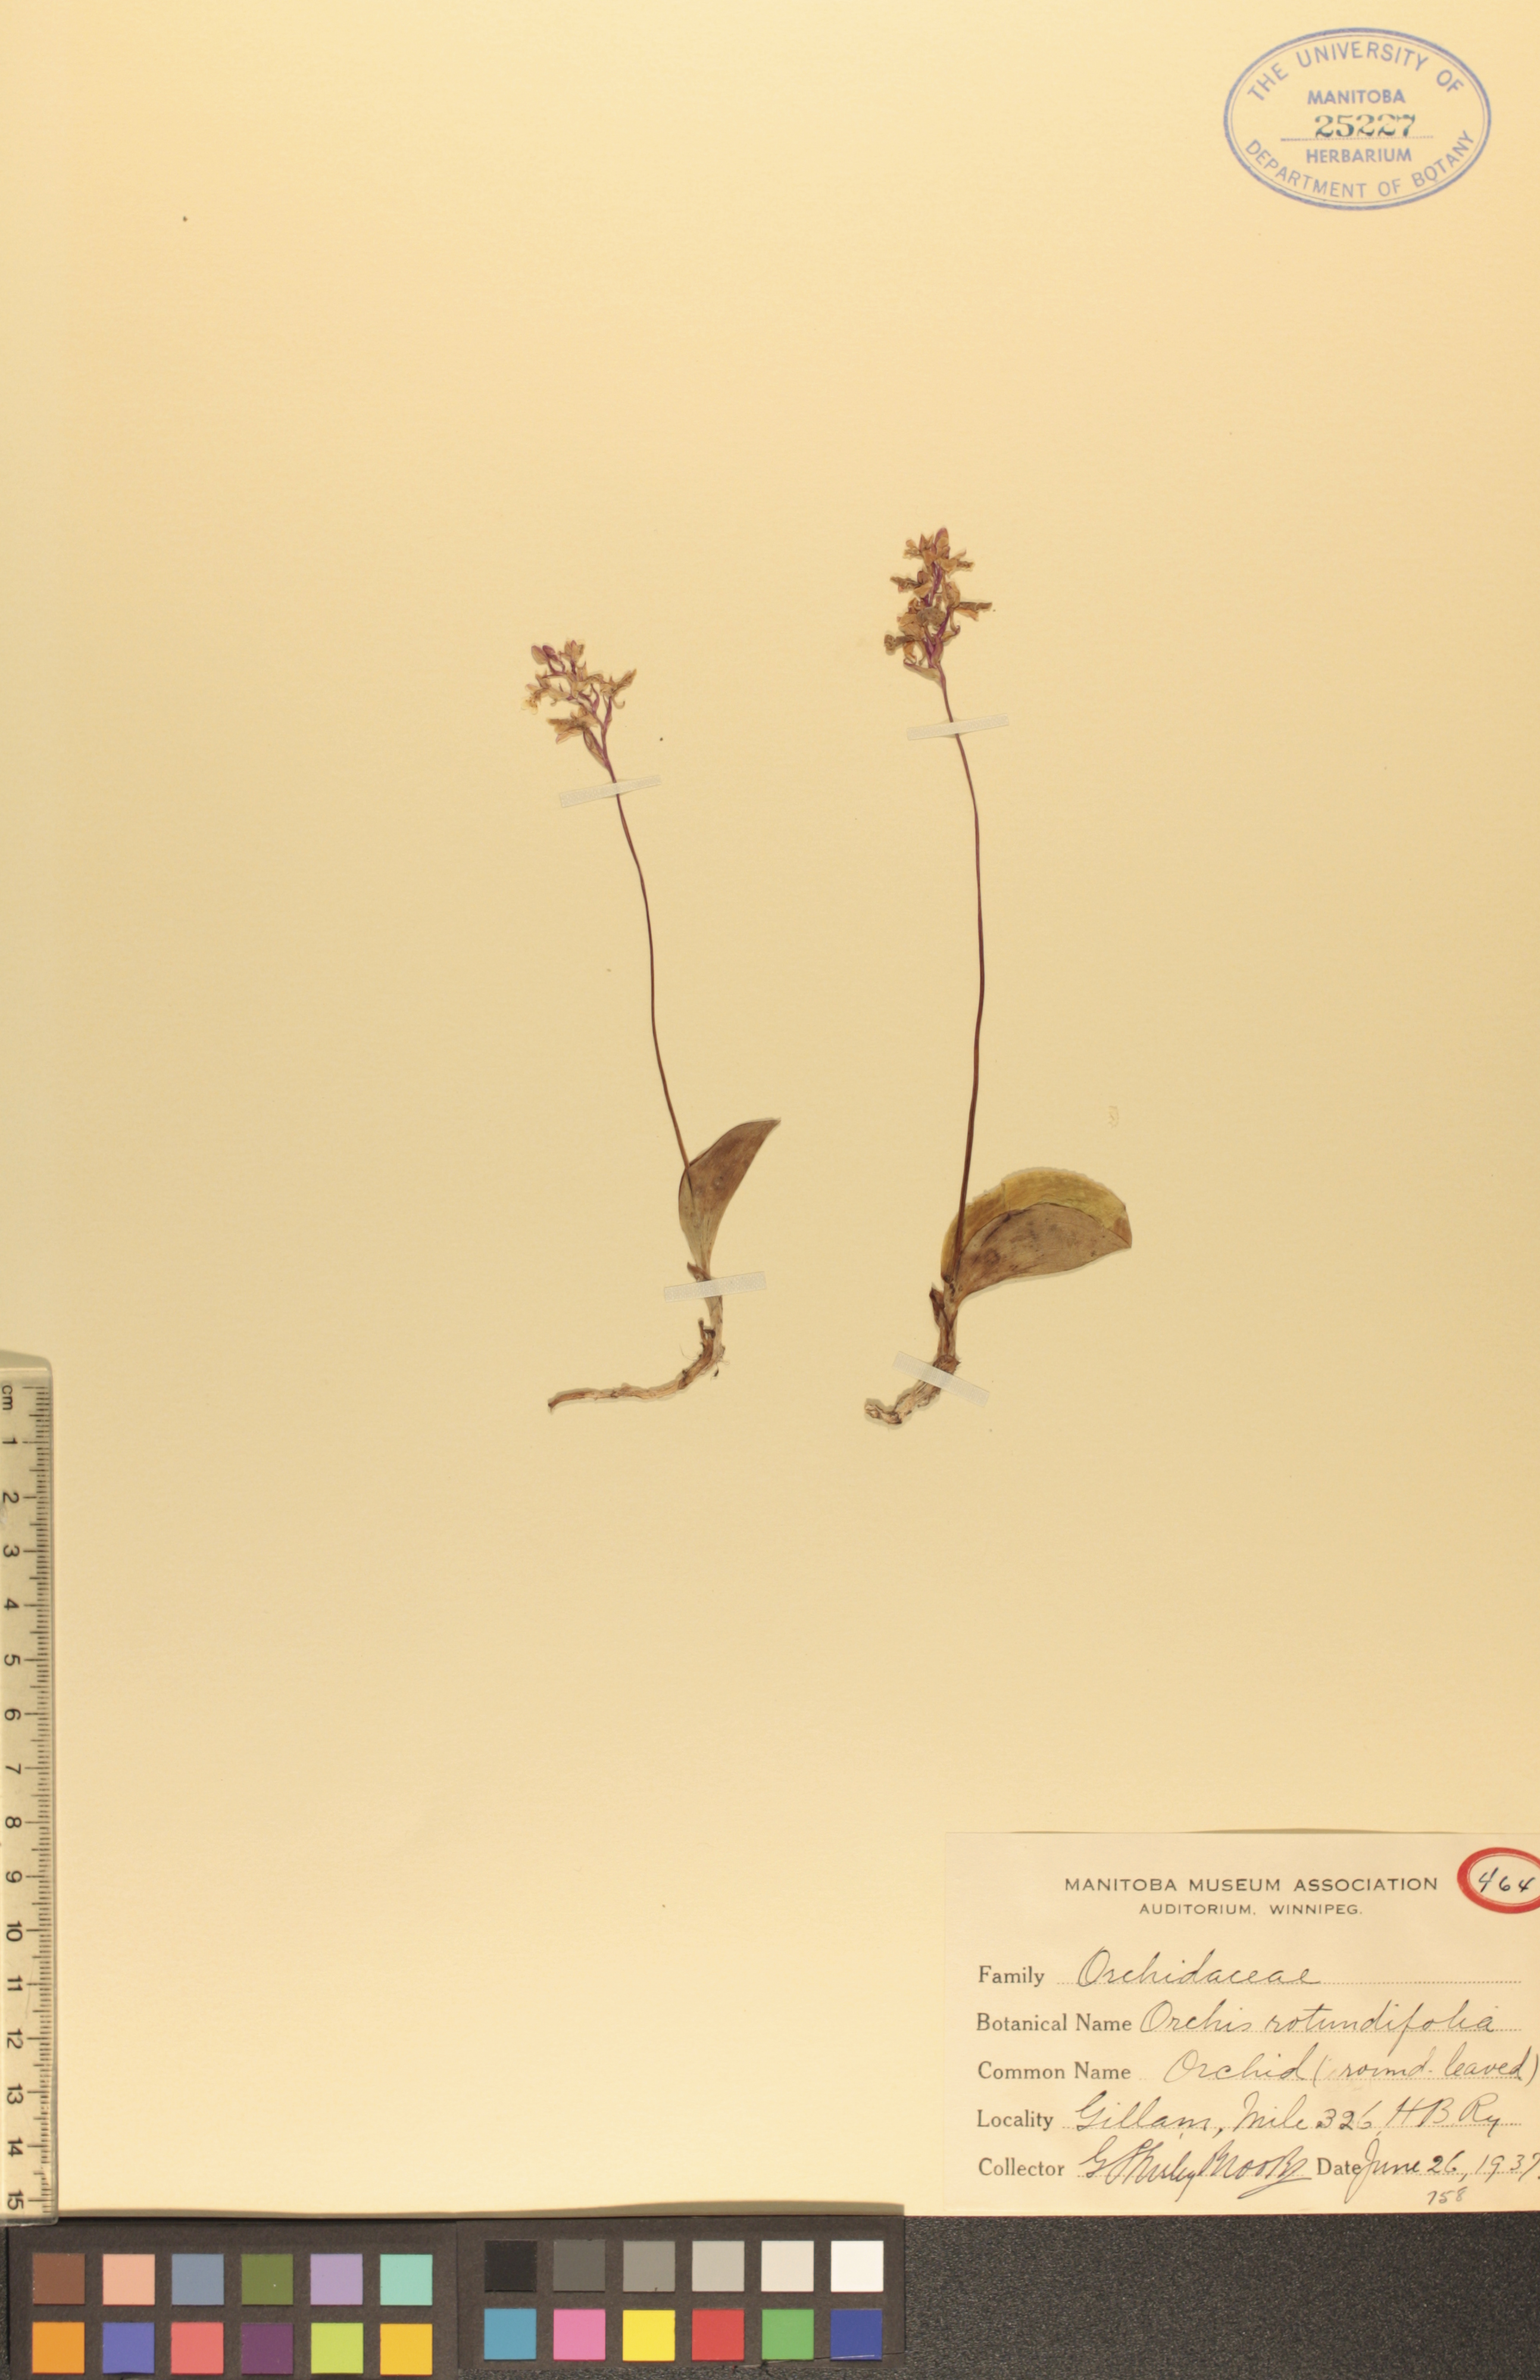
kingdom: Plantae
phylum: Tracheophyta
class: Liliopsida
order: Asparagales
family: Orchidaceae
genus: Galearis
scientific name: Galearis rotundifolia
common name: One-leaved orchis
